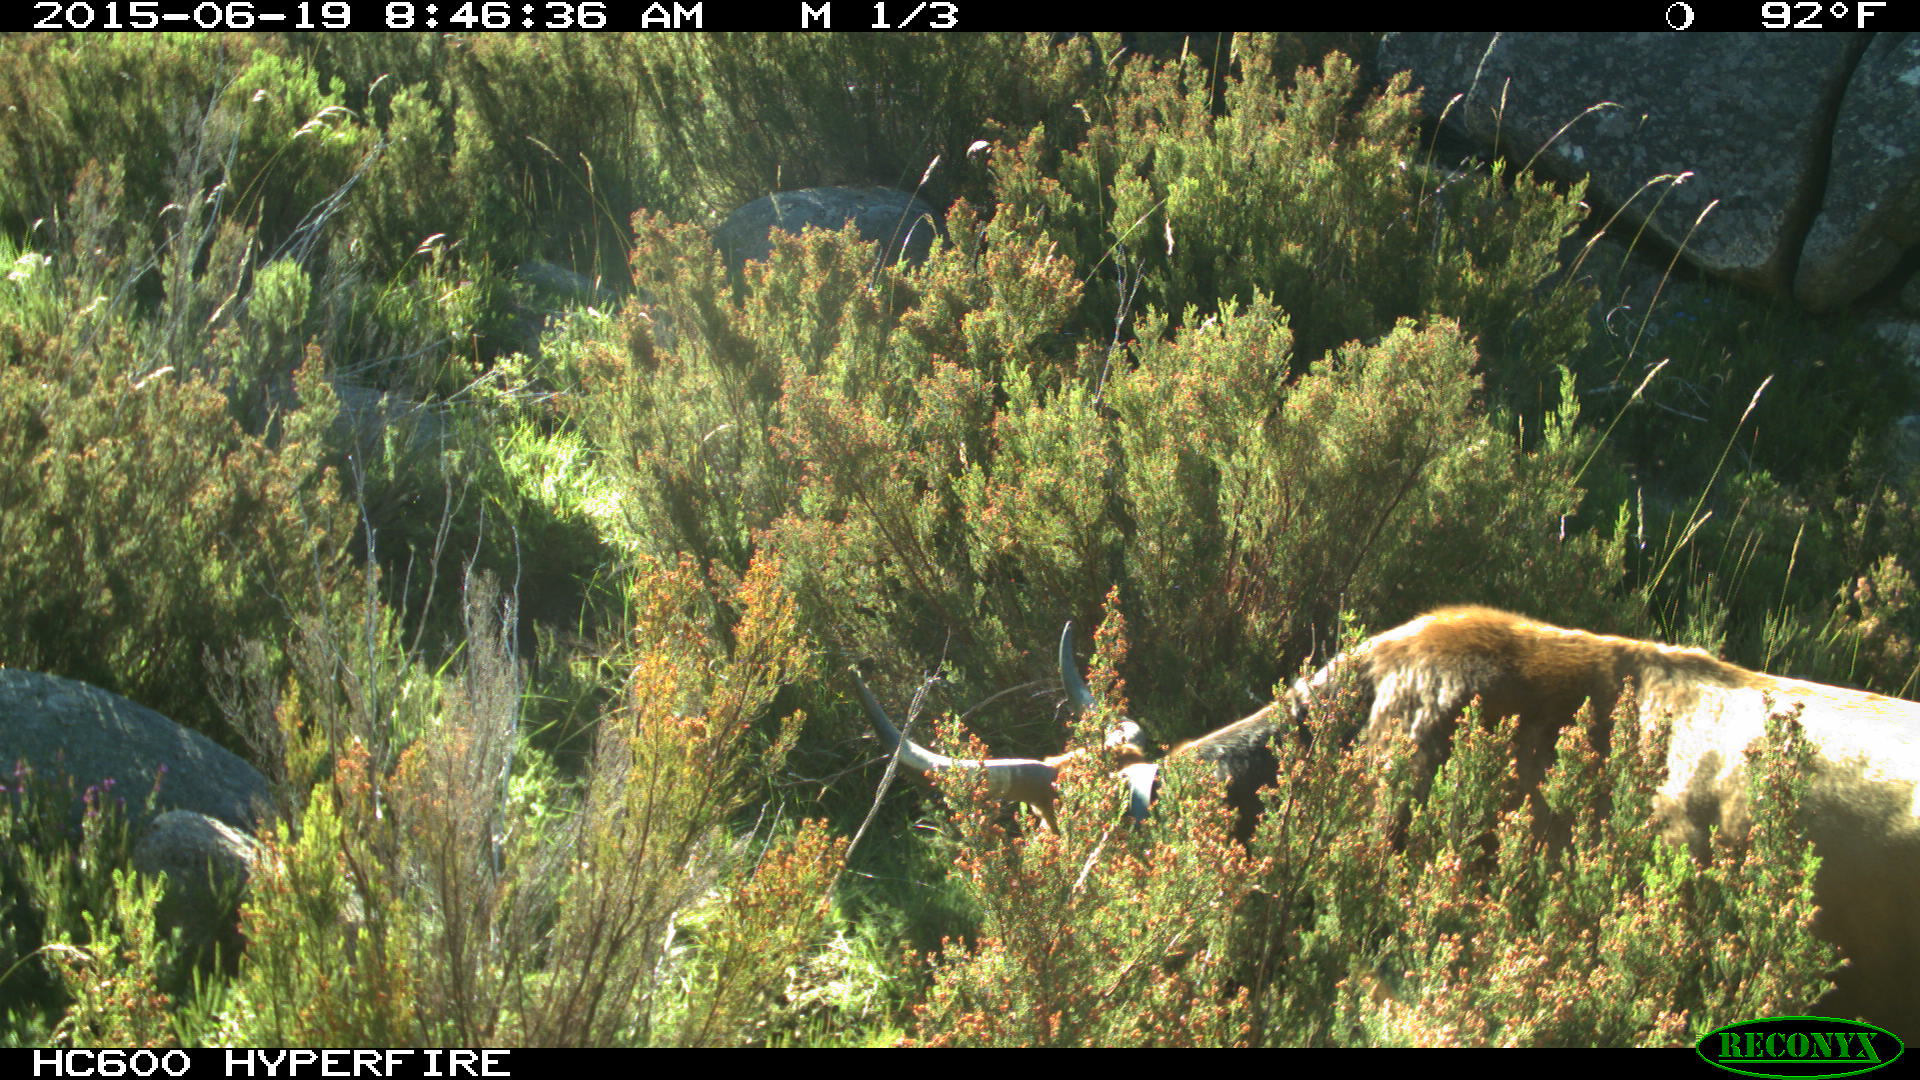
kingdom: Animalia
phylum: Chordata
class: Mammalia
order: Artiodactyla
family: Bovidae
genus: Bos
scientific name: Bos taurus
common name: Domesticated cattle
